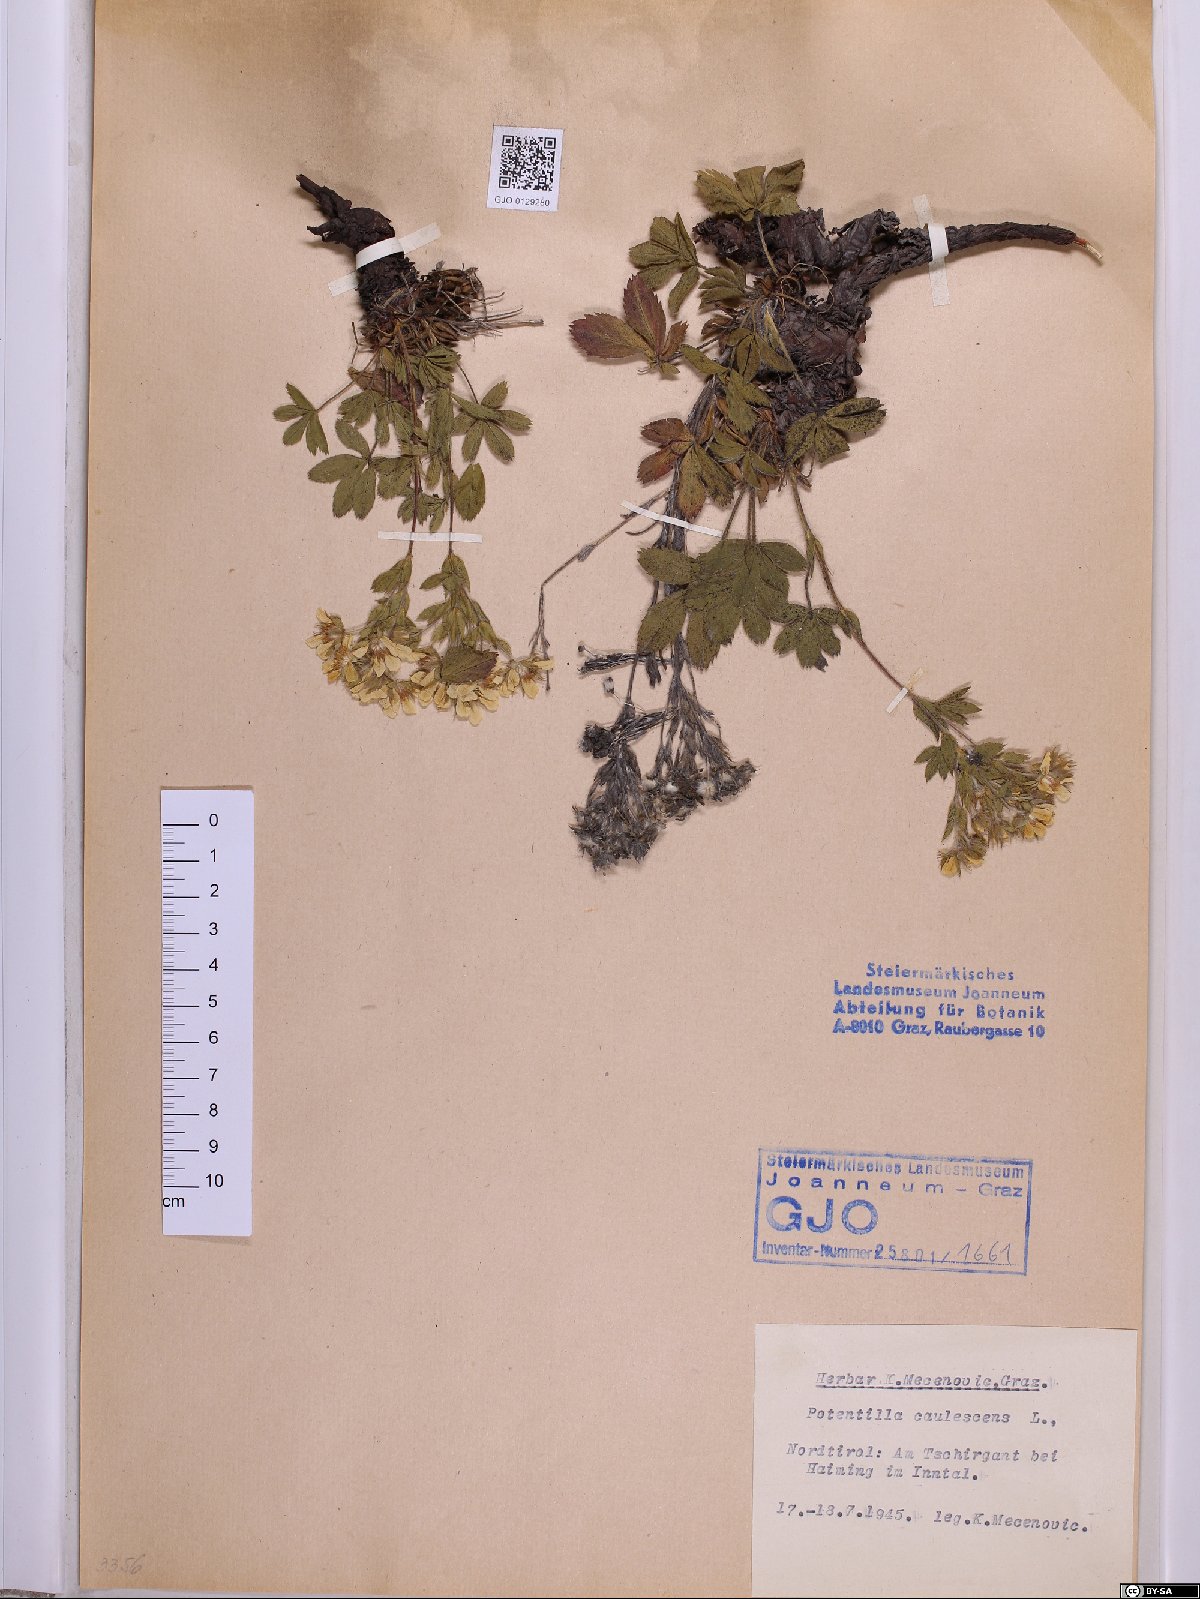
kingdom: Plantae
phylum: Tracheophyta
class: Magnoliopsida
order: Rosales
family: Rosaceae
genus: Potentilla
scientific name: Potentilla caulescens
